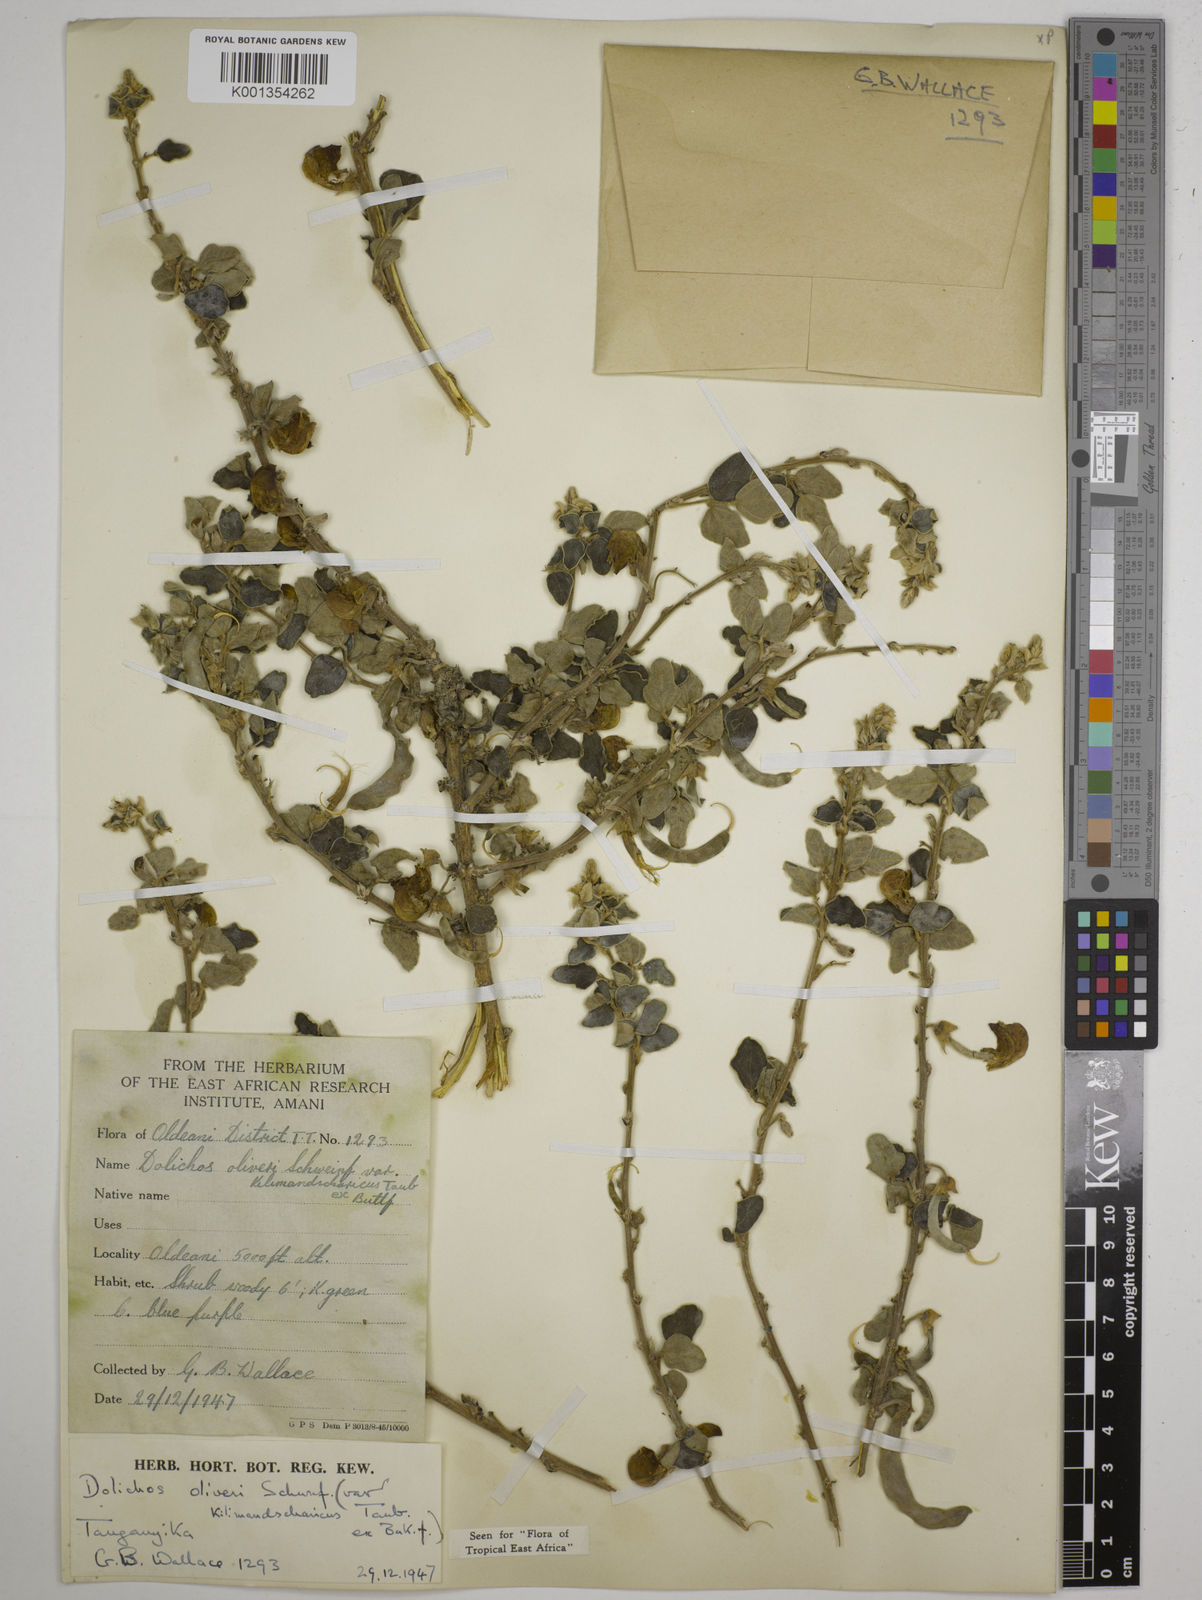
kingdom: Plantae
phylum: Tracheophyta
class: Magnoliopsida
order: Fabales
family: Fabaceae
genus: Dolichos
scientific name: Dolichos
